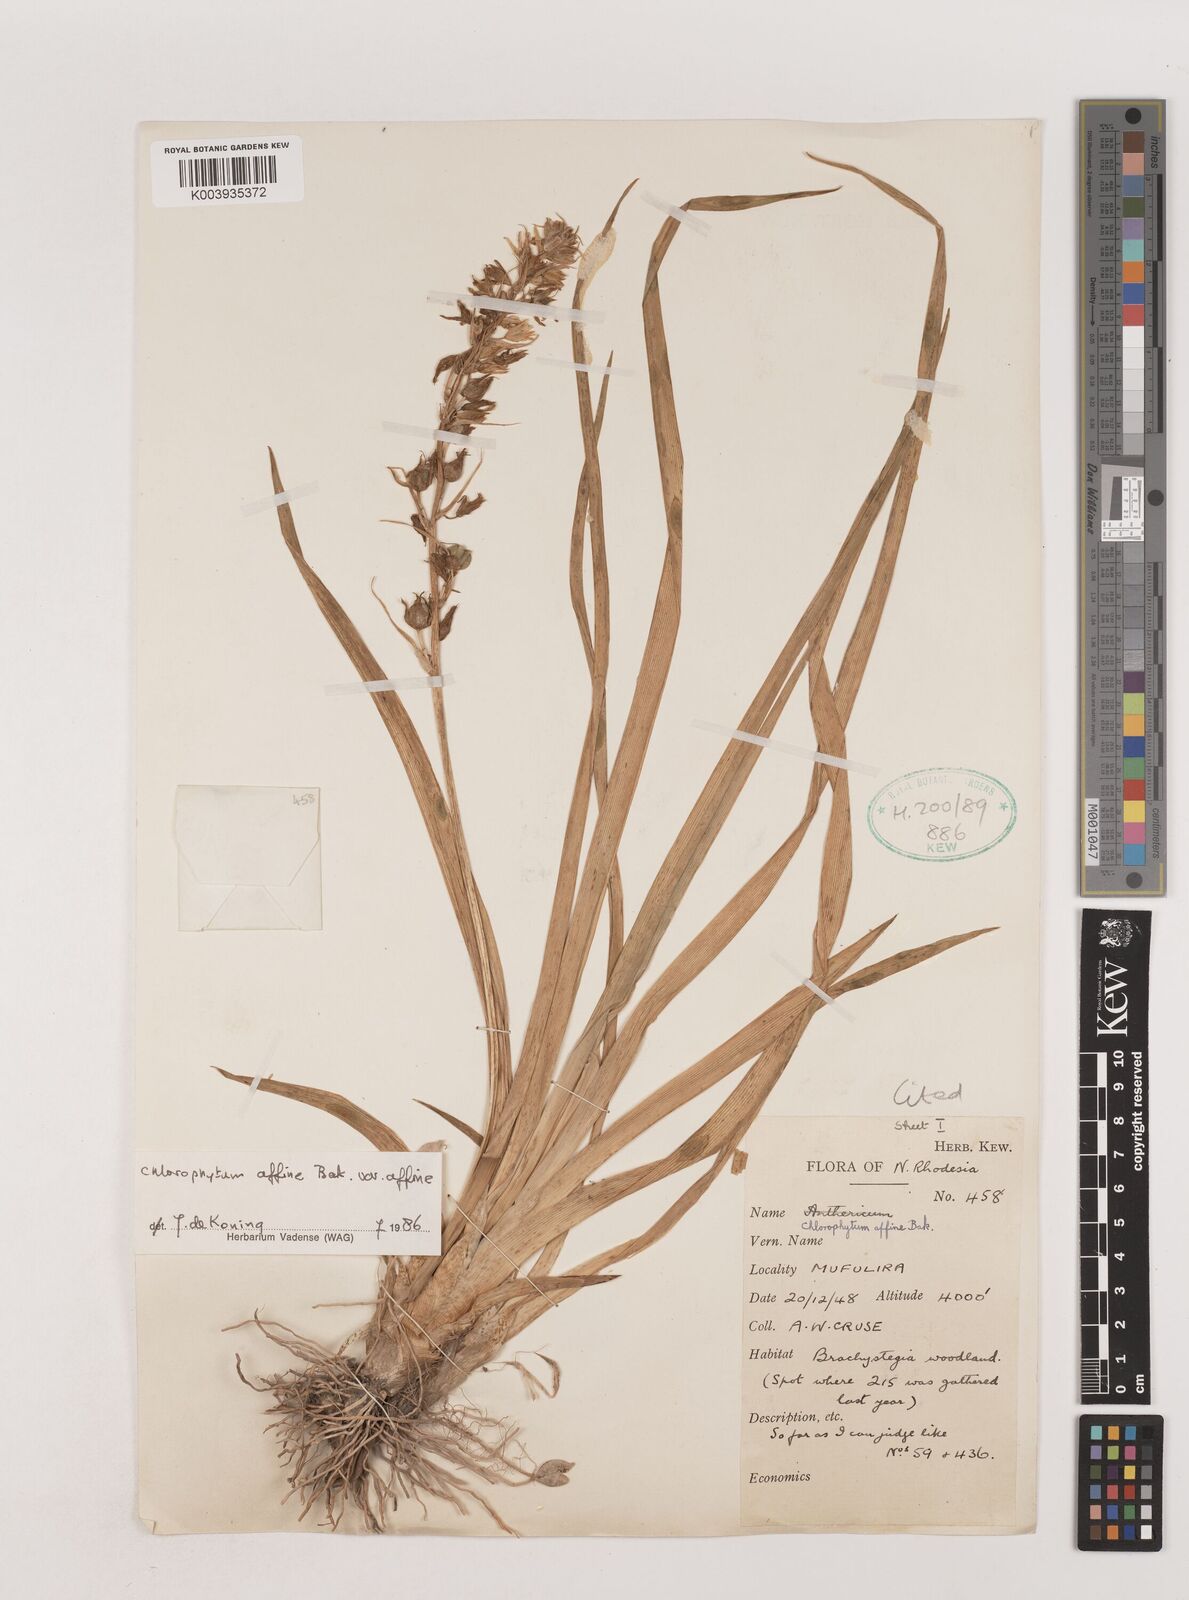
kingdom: Plantae
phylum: Tracheophyta
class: Liliopsida
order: Asparagales
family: Asparagaceae
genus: Chlorophytum
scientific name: Chlorophytum affine
